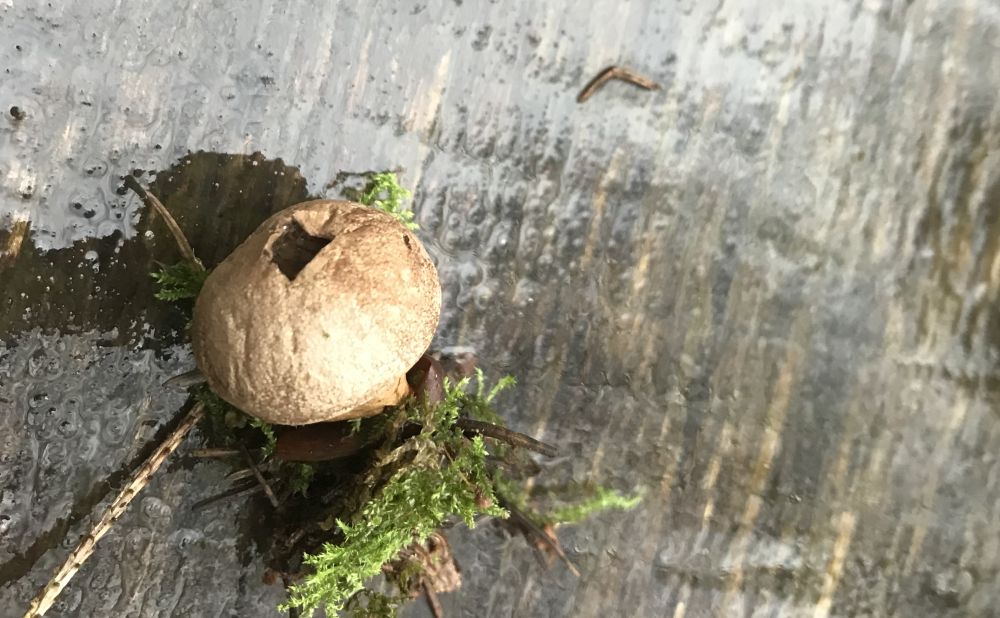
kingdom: Fungi
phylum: Basidiomycota
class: Agaricomycetes
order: Agaricales
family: Agaricaceae
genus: Lycoperdon
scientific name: Lycoperdon
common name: støvbold
